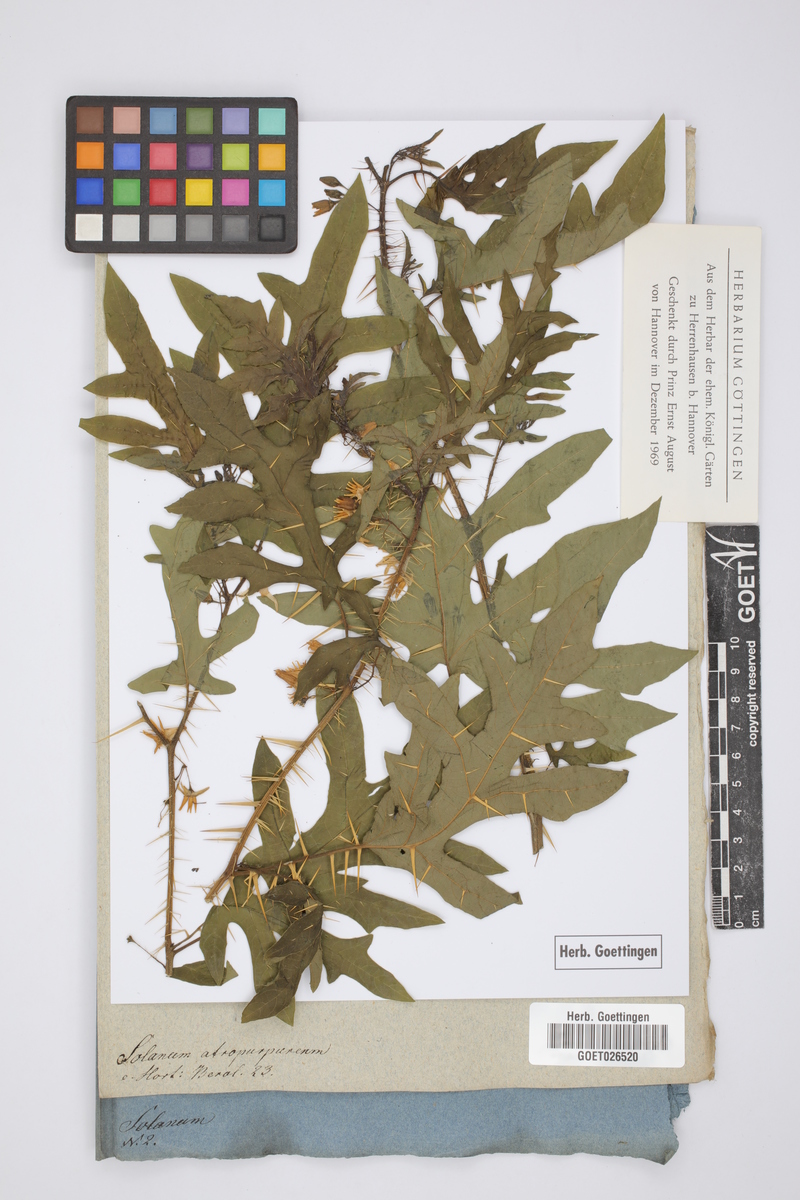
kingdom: Plantae
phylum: Tracheophyta
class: Magnoliopsida
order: Solanales
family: Solanaceae
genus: Solanum
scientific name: Solanum atropurpureum
